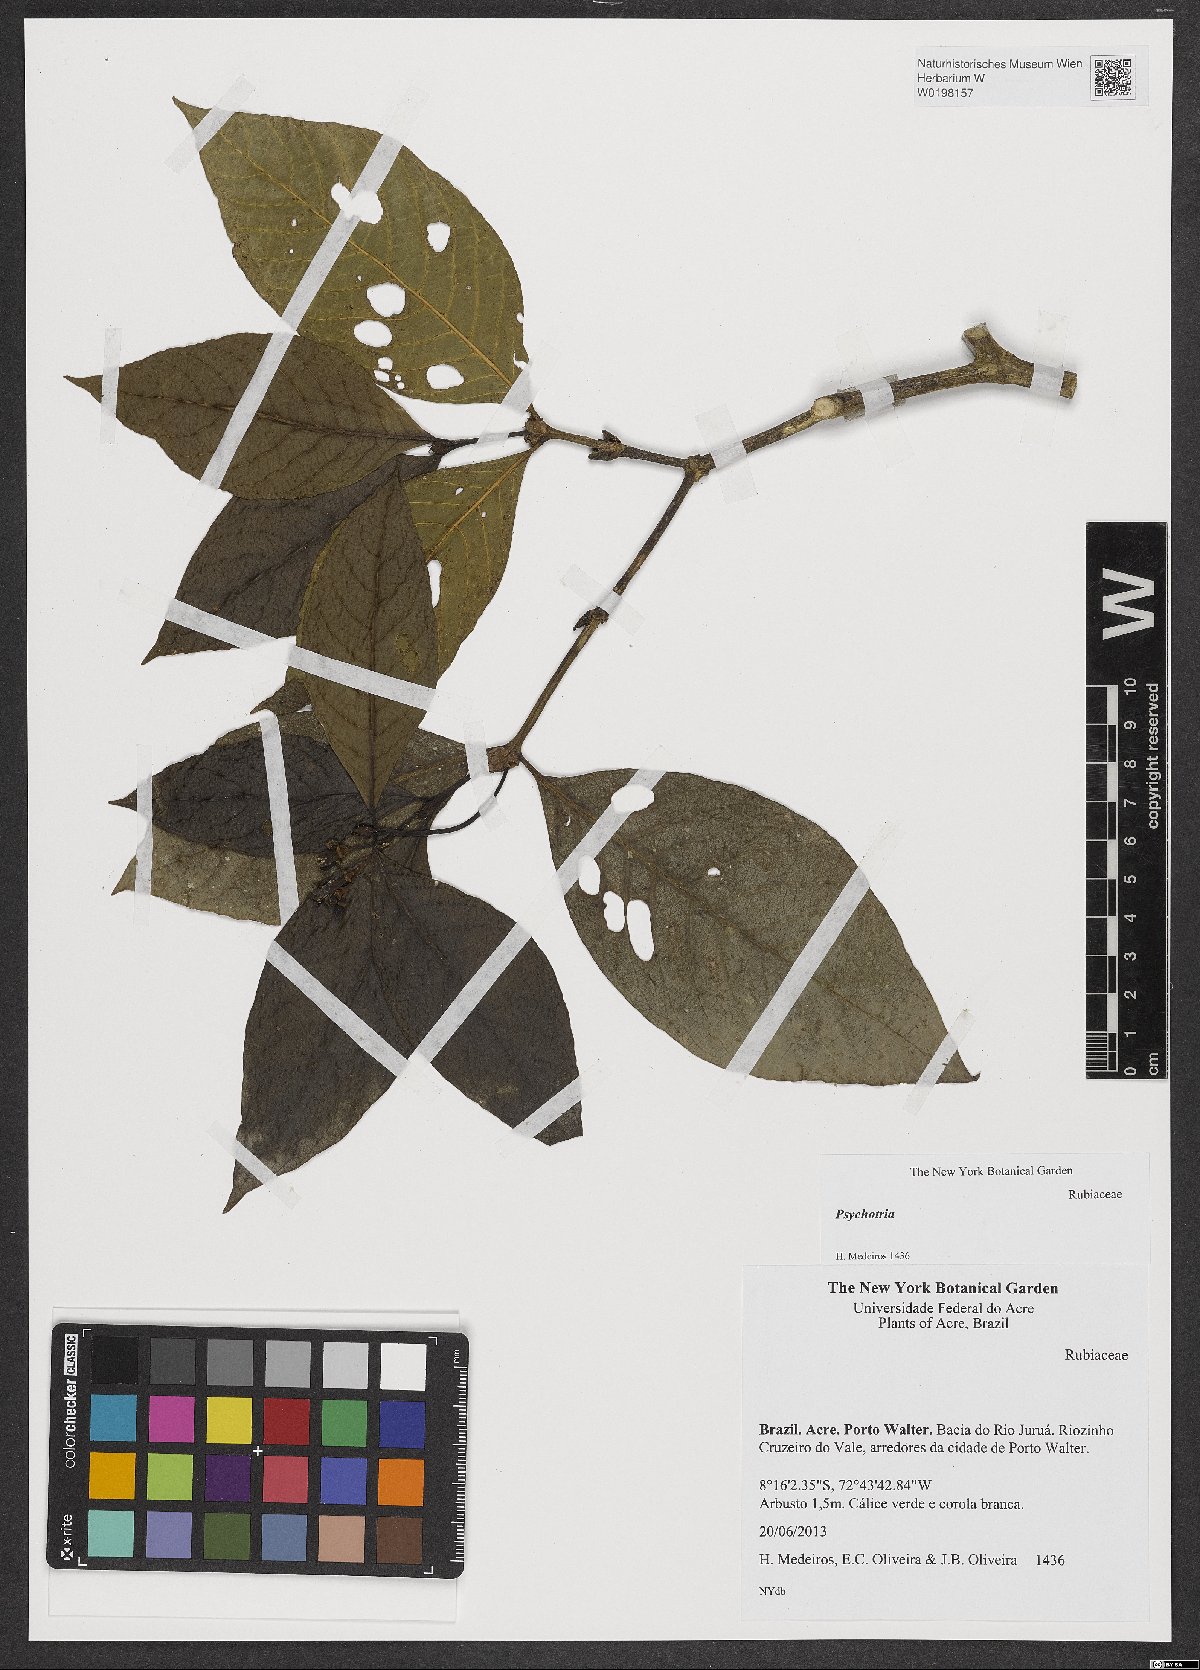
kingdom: Plantae
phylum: Tracheophyta
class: Magnoliopsida
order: Gentianales
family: Rubiaceae
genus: Rudgea
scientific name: Rudgea
